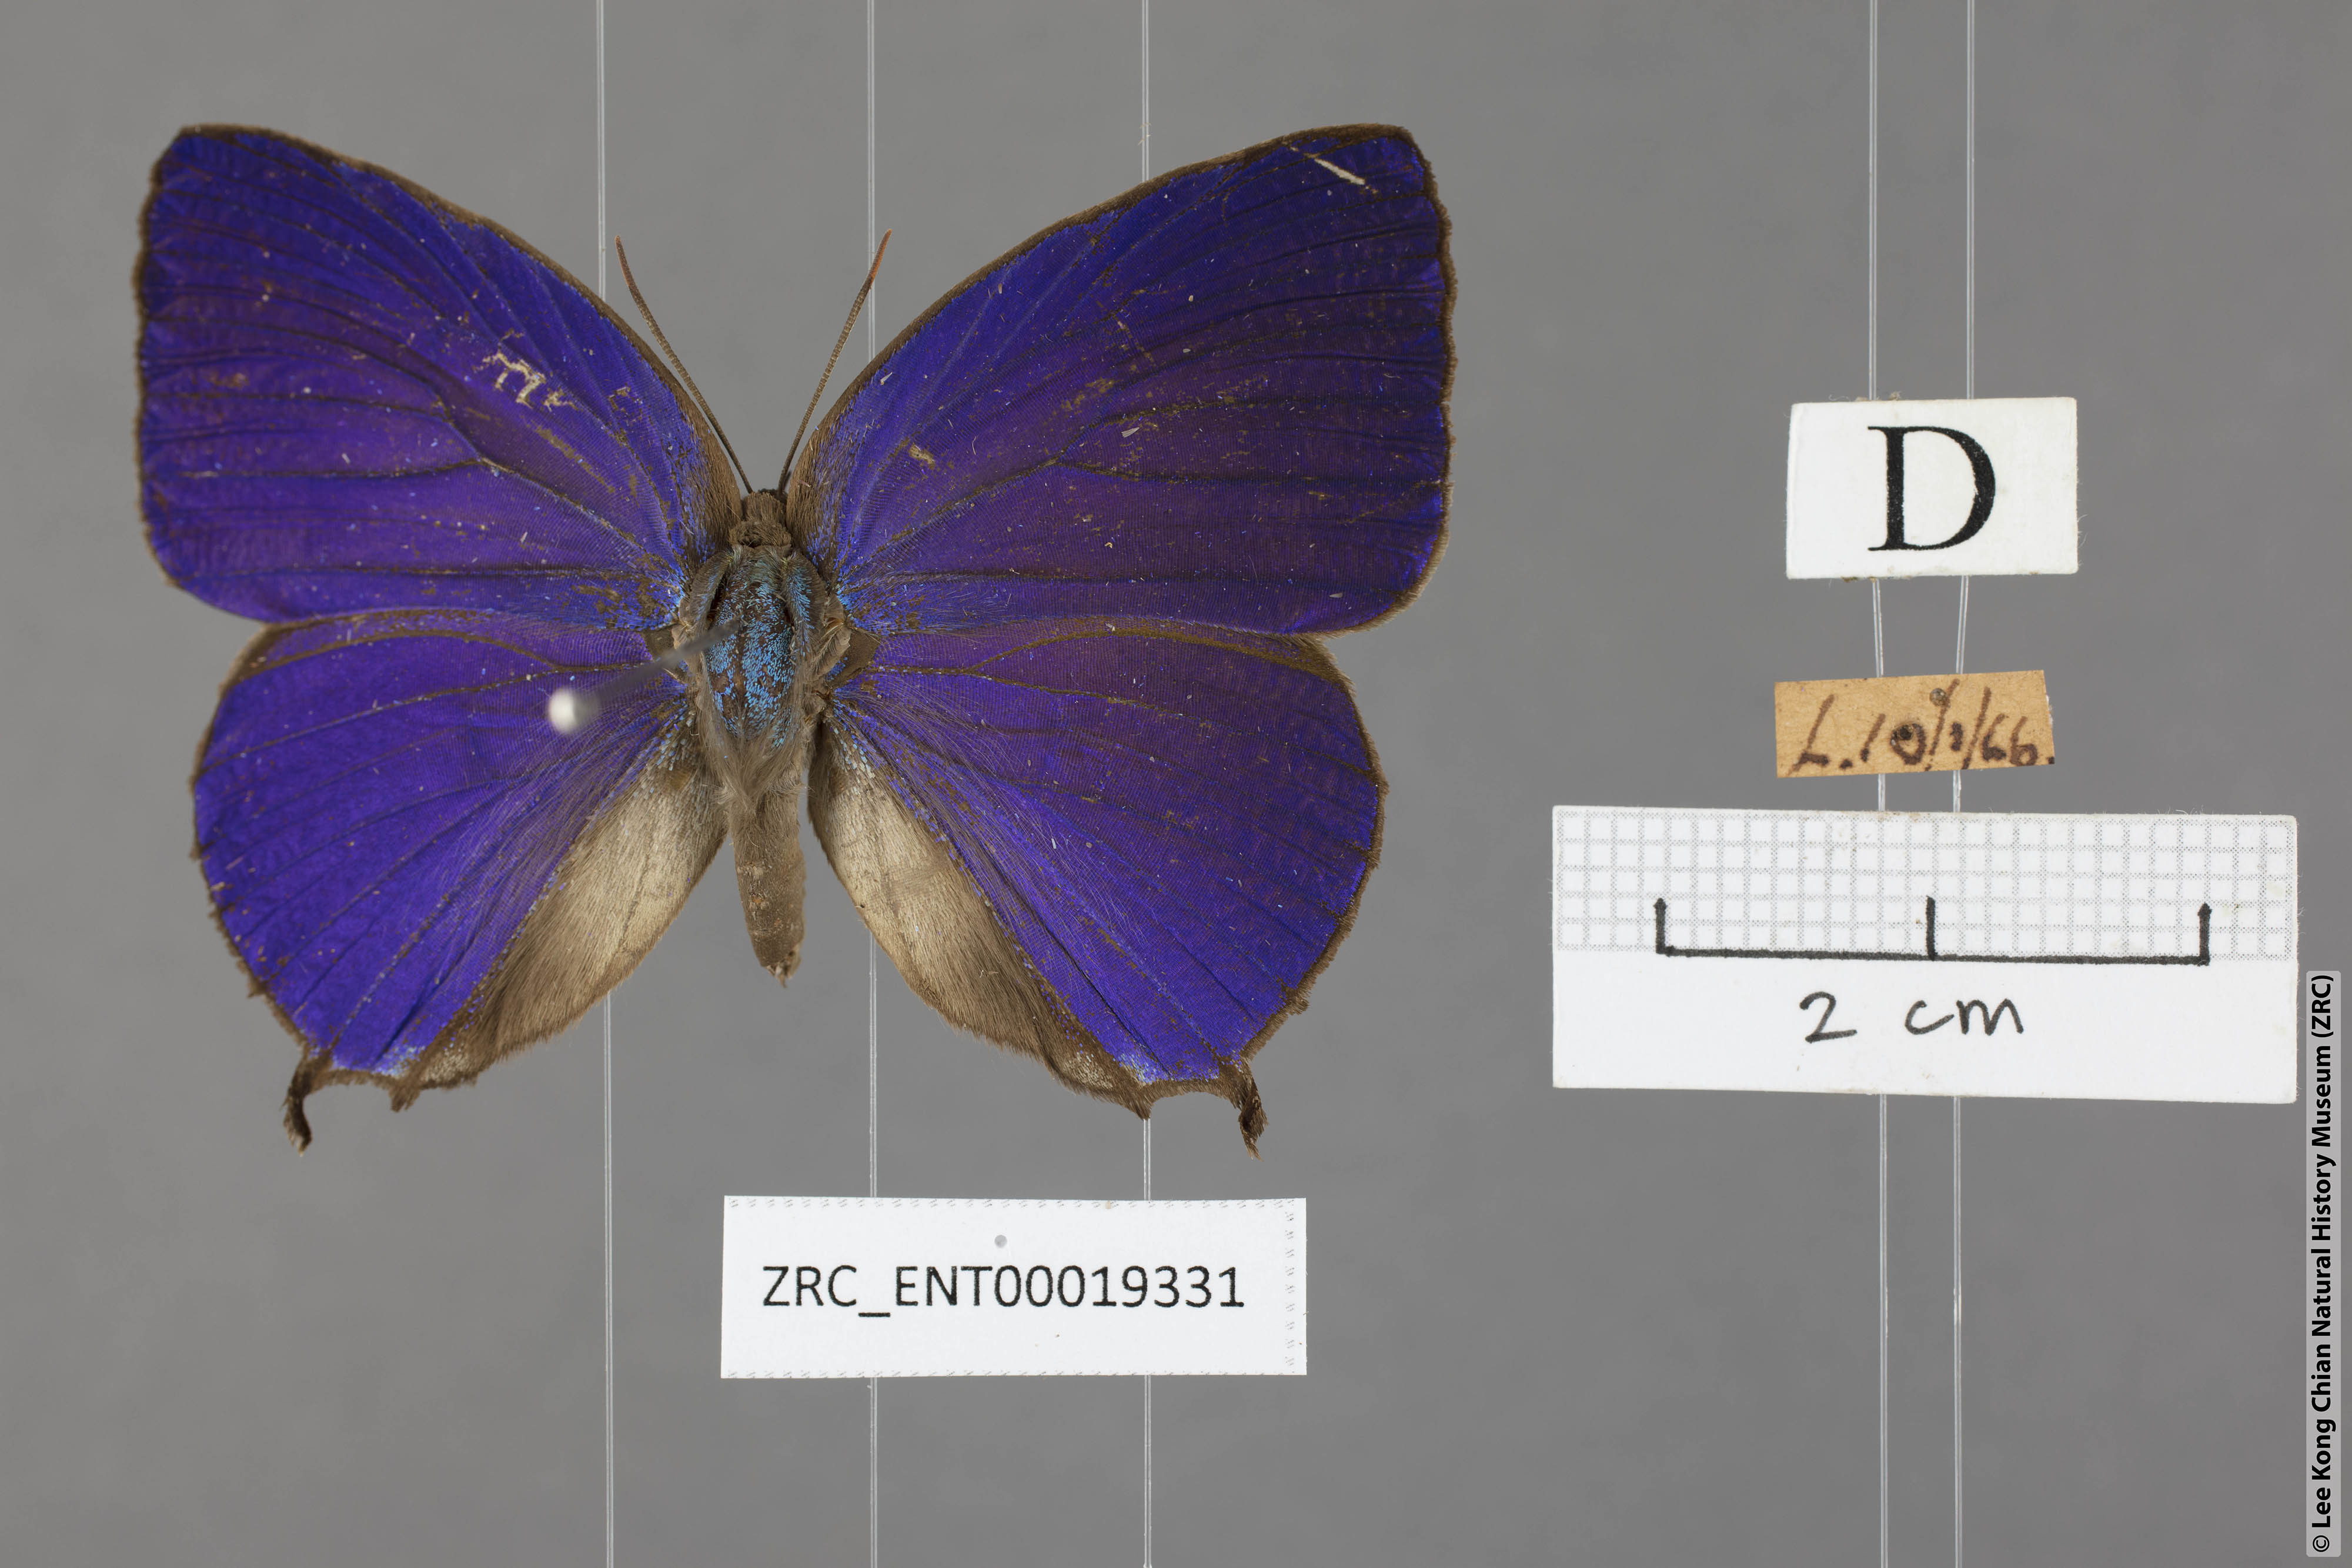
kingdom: Animalia
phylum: Arthropoda
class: Insecta
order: Lepidoptera
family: Lycaenidae
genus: Arhopala
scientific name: Arhopala centaurus
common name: Dull oak-blue
